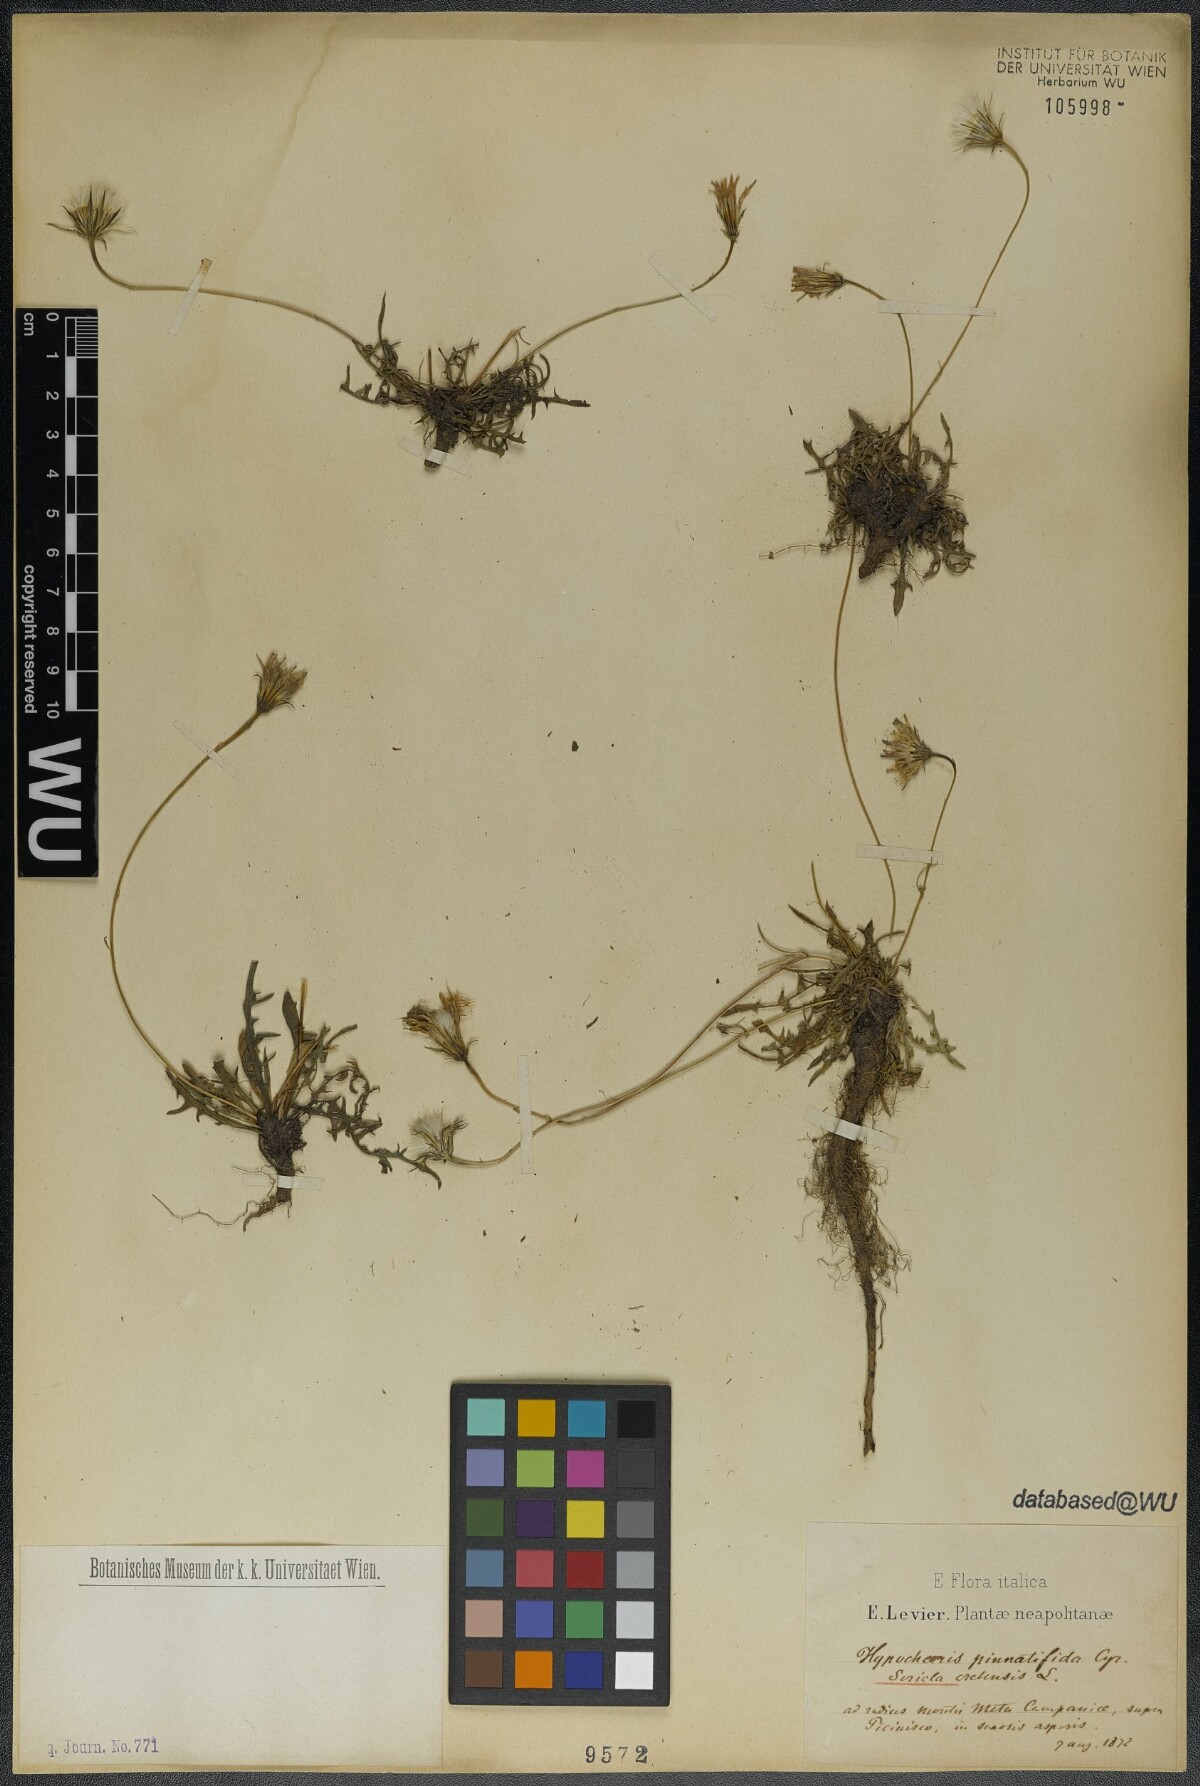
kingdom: Plantae
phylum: Tracheophyta
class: Magnoliopsida
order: Asterales
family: Asteraceae
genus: Hypochaeris
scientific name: Hypochaeris cretensis
